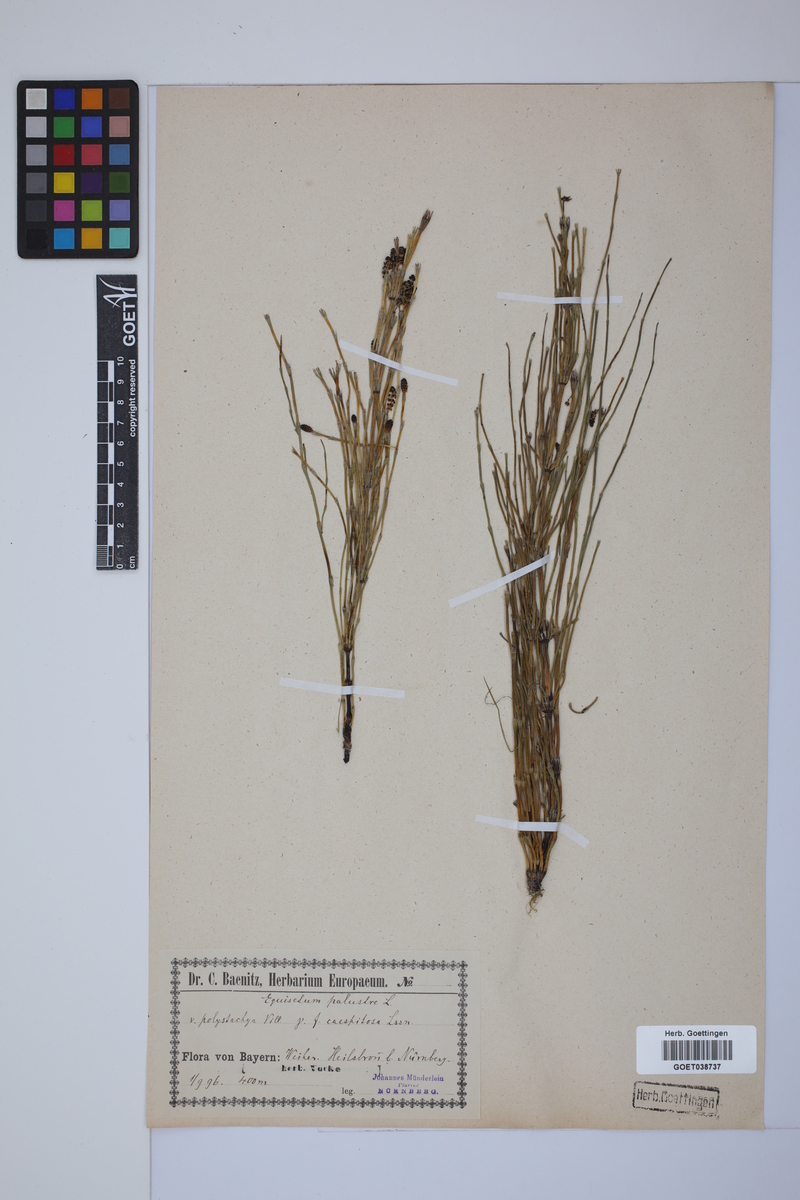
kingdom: Plantae
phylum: Tracheophyta
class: Polypodiopsida
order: Equisetales
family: Equisetaceae
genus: Equisetum
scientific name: Equisetum palustre
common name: Marsh horsetail
